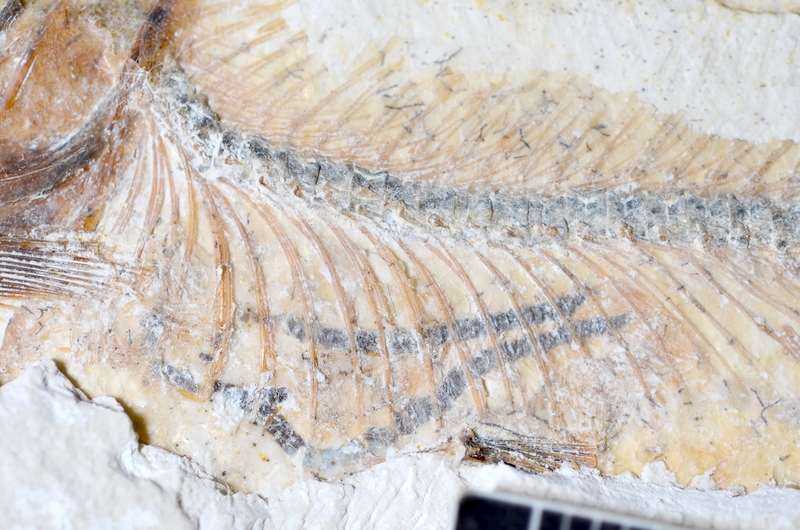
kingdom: Animalia
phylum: Chordata
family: Ascalaboidae
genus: Ebertichthys
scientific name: Ebertichthys ettlingensis
